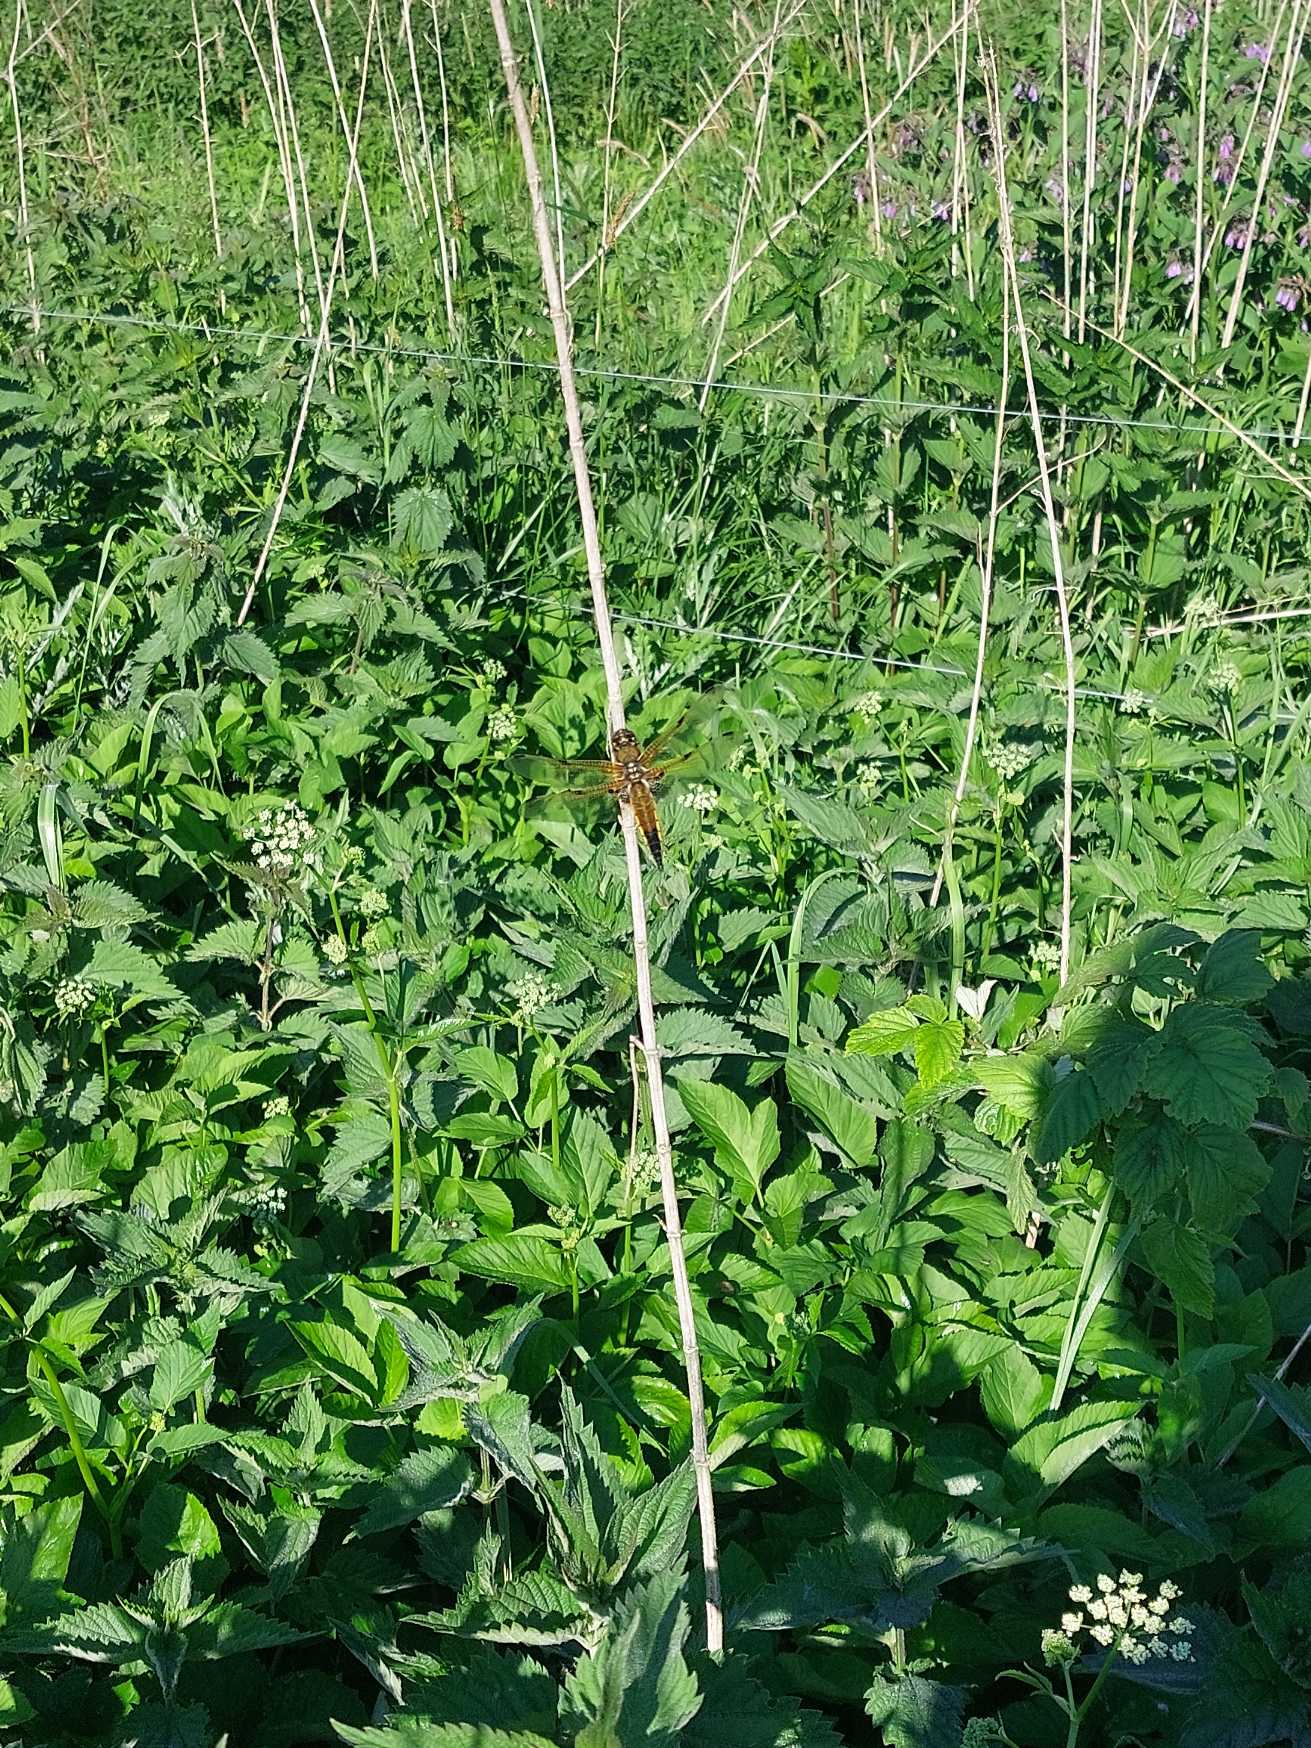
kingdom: Animalia
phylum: Arthropoda
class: Insecta
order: Odonata
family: Libellulidae
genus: Libellula
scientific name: Libellula quadrimaculata
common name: Fireplettet libel
